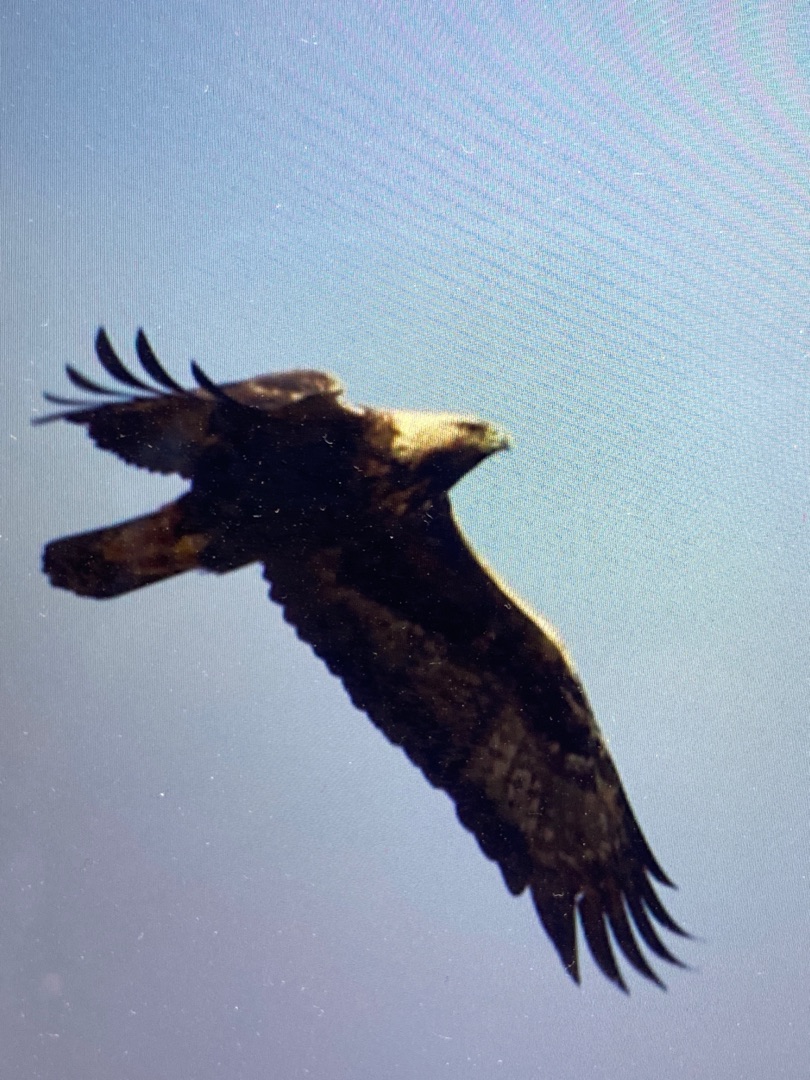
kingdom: Animalia
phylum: Chordata
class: Aves
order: Accipitriformes
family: Accipitridae
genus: Aquila
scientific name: Aquila chrysaetos
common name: Kongeørn
